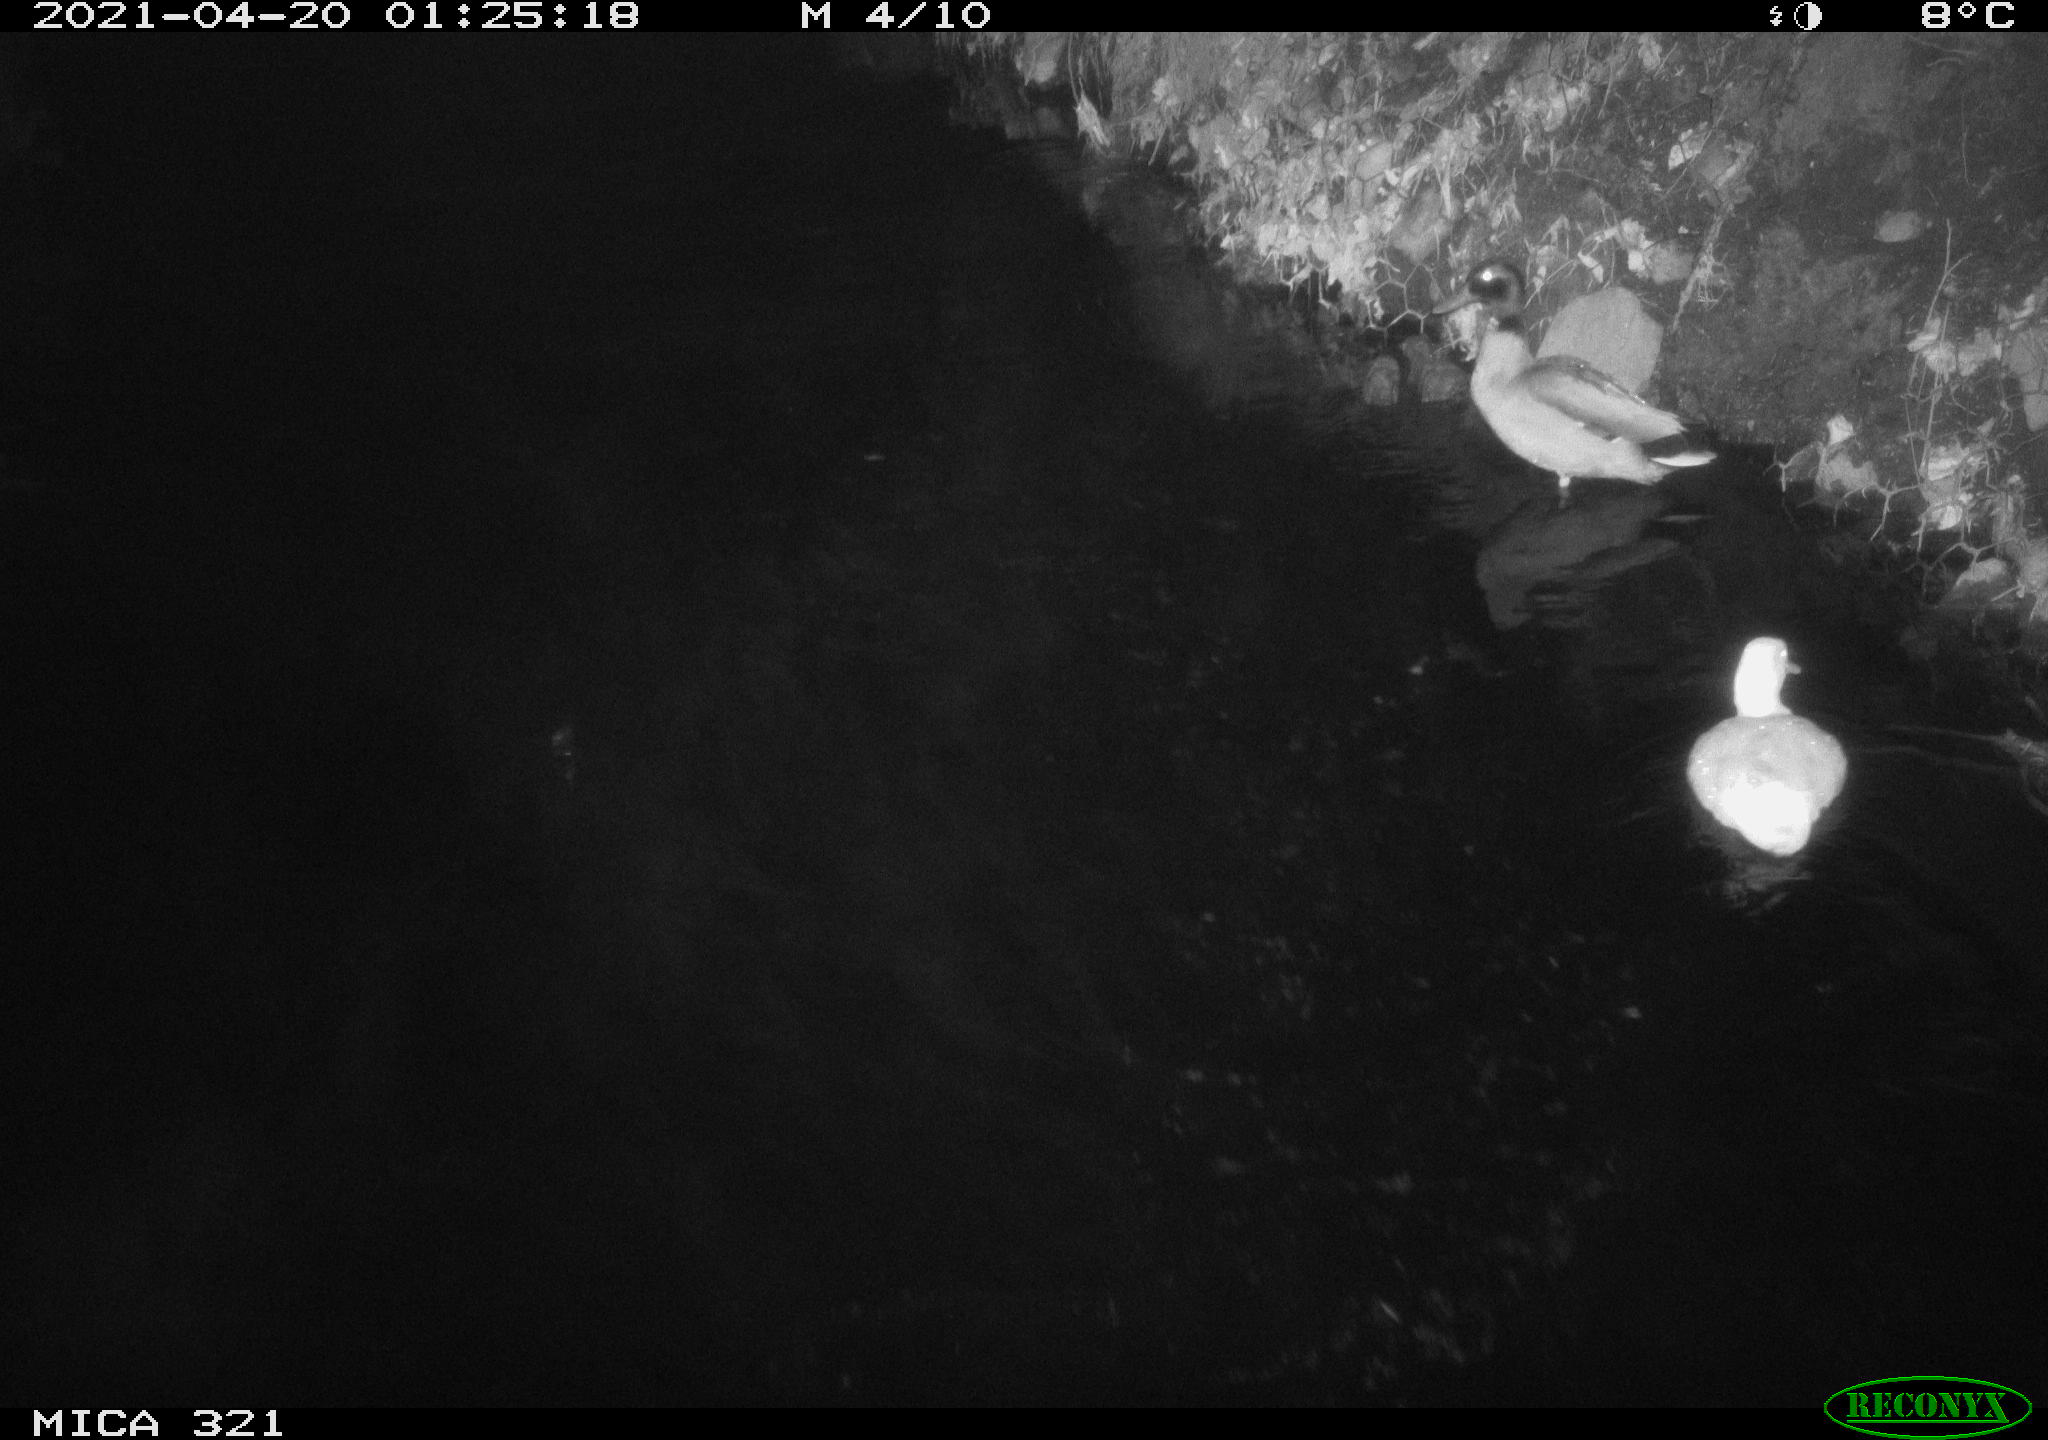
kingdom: Animalia
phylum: Chordata
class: Aves
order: Anseriformes
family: Anatidae
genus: Anas
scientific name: Anas
